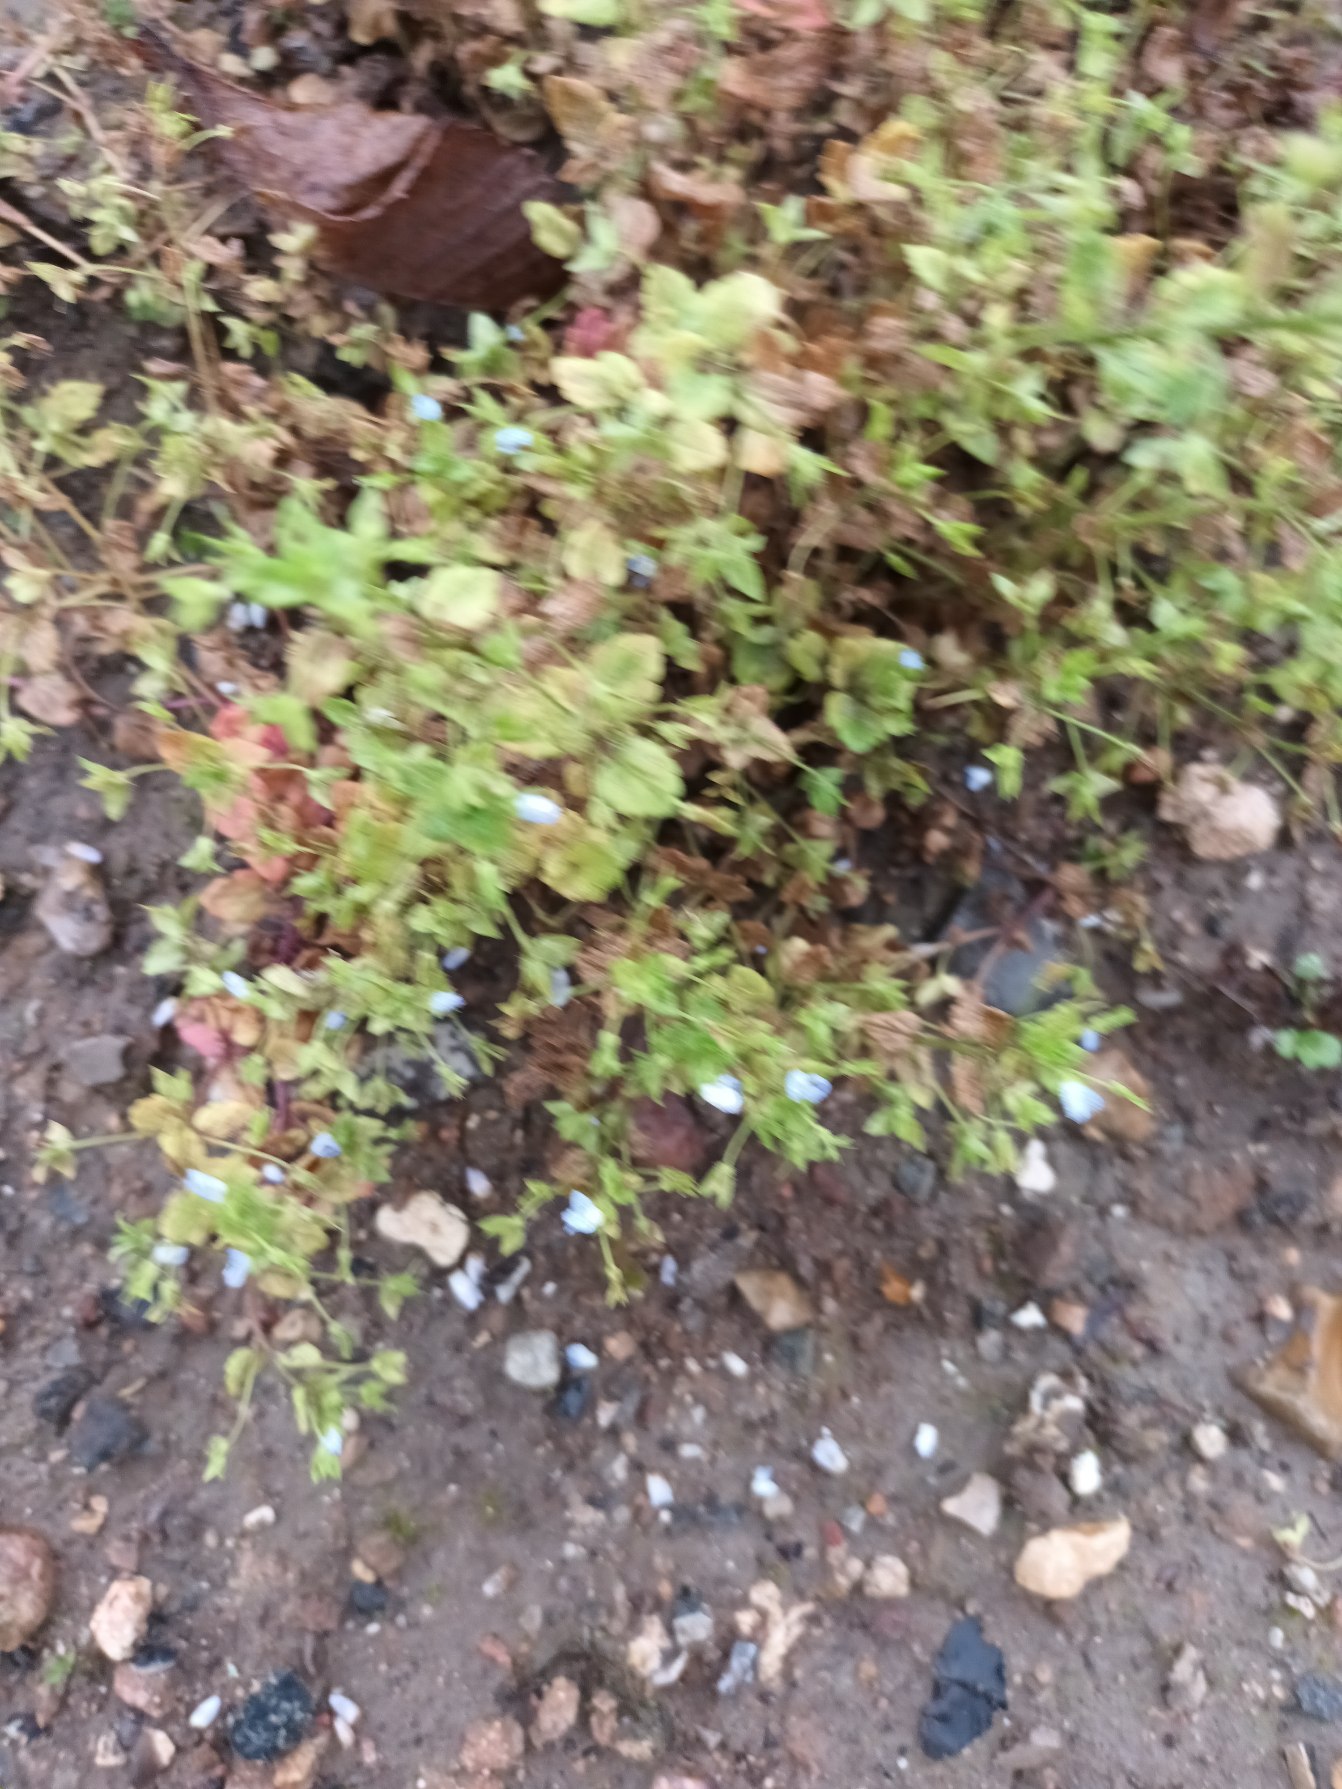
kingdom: Plantae
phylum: Tracheophyta
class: Magnoliopsida
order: Lamiales
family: Plantaginaceae
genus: Veronica
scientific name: Veronica persica
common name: Storkronet ærenpris
